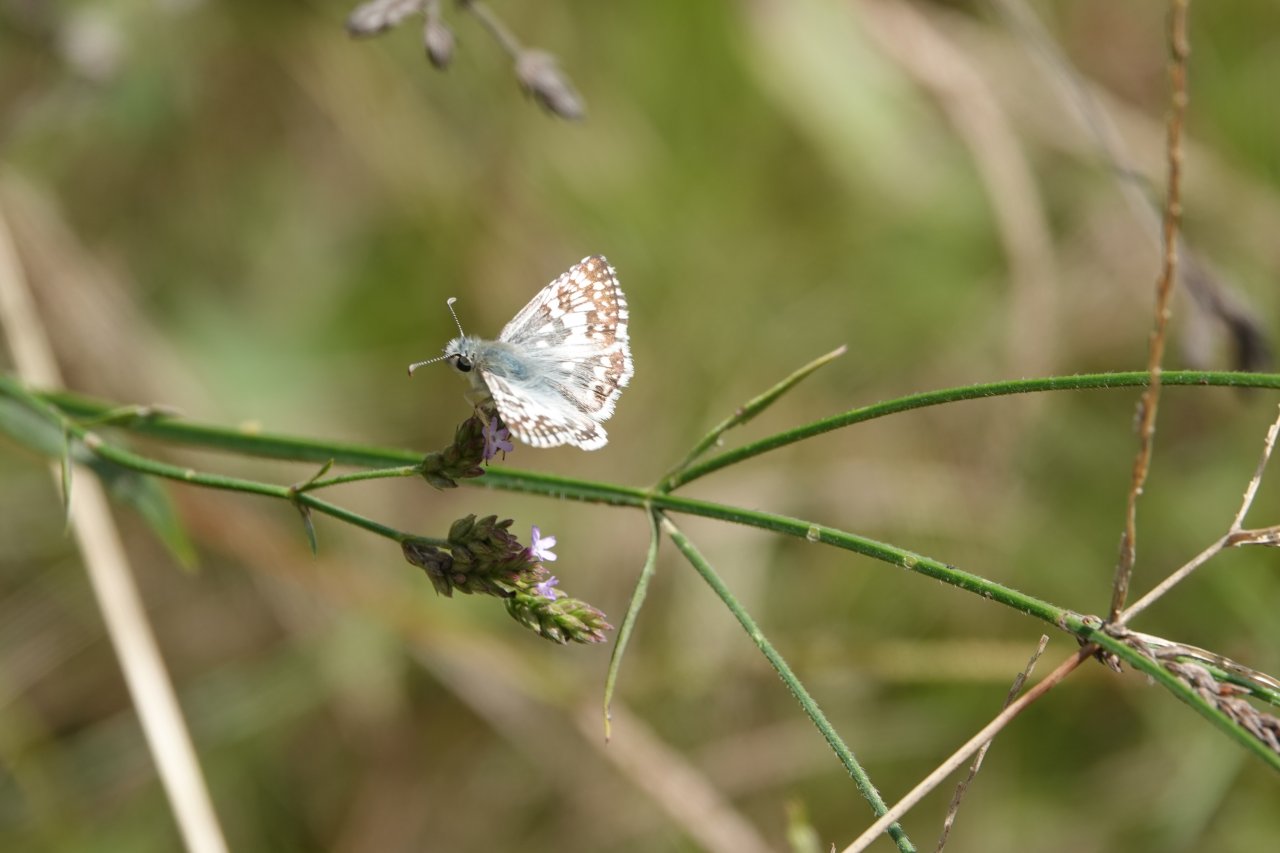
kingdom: Animalia
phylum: Arthropoda
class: Insecta
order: Lepidoptera
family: Hesperiidae
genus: Pyrgus
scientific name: Pyrgus communis
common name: White Checkered-Skipper
